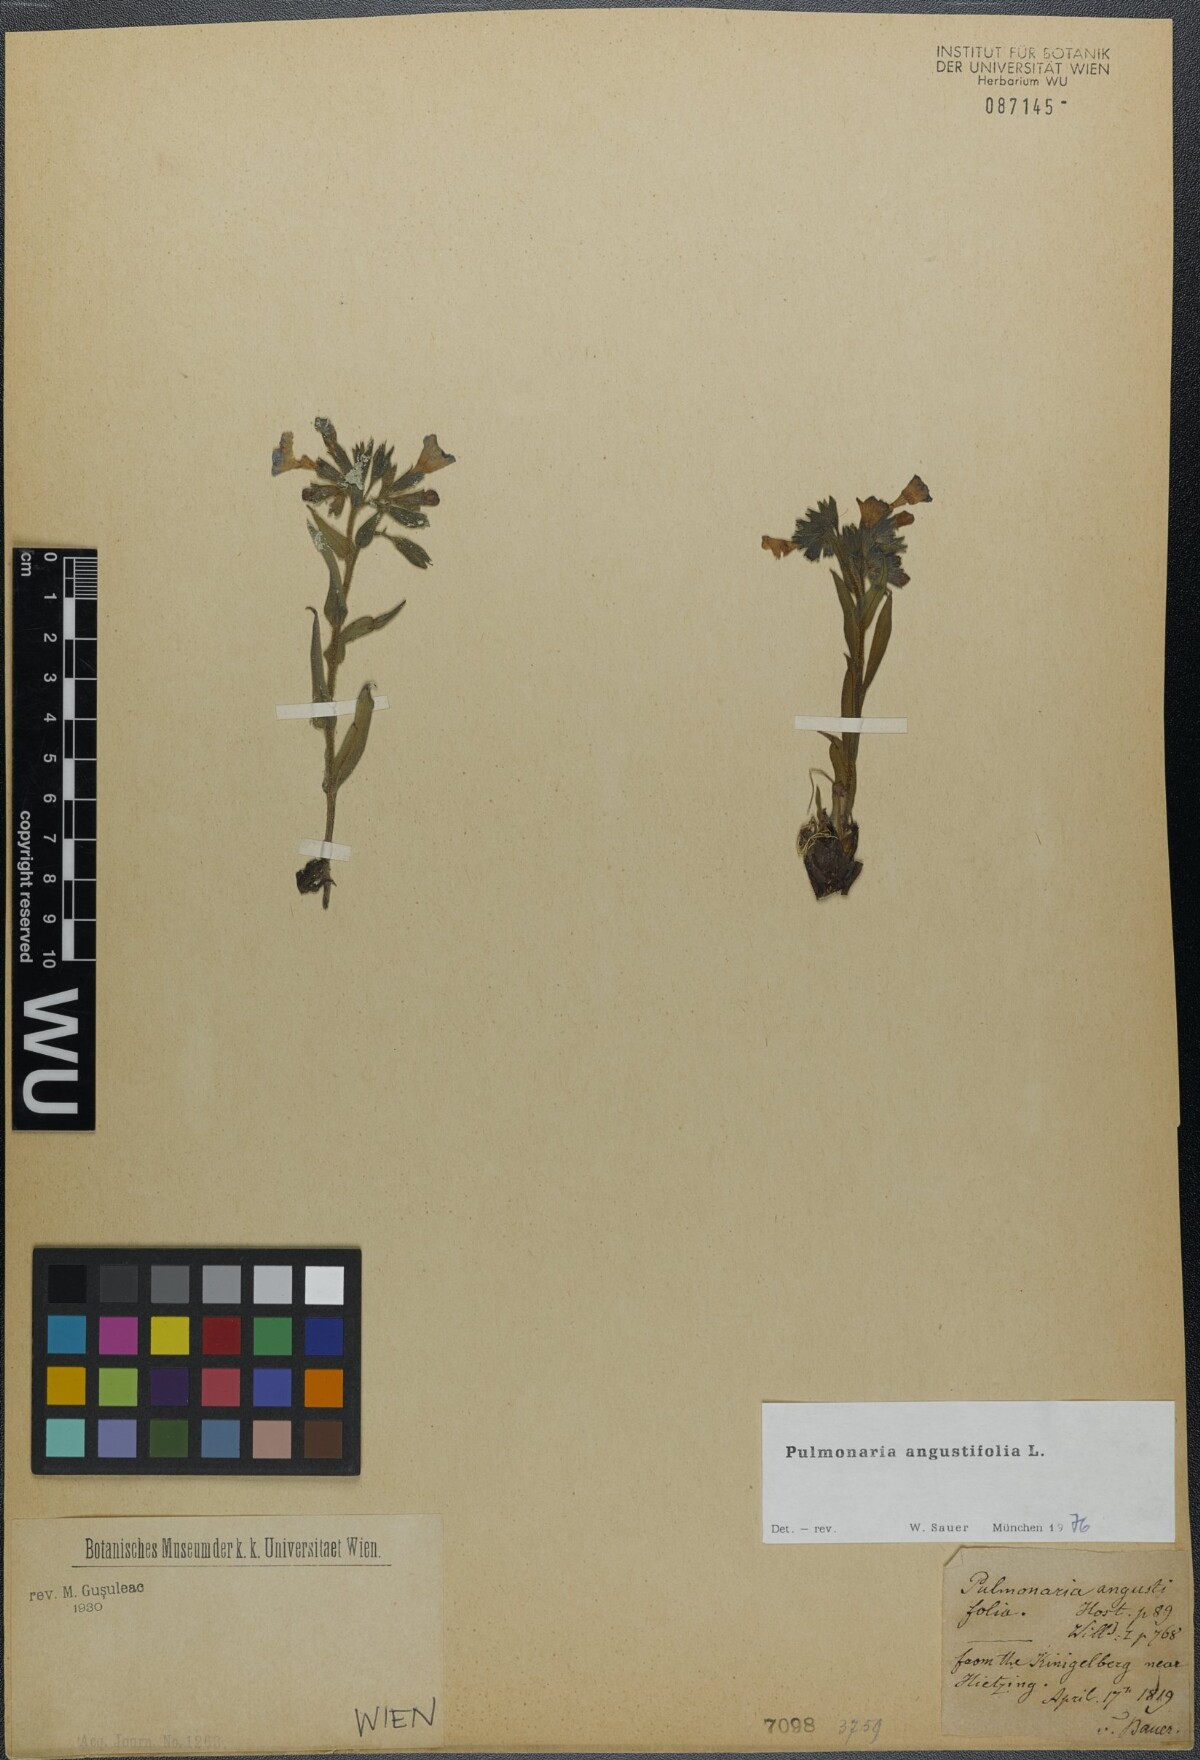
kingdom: Plantae
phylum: Tracheophyta
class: Magnoliopsida
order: Boraginales
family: Boraginaceae
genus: Pulmonaria
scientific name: Pulmonaria angustifolia
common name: Blue cowslip
